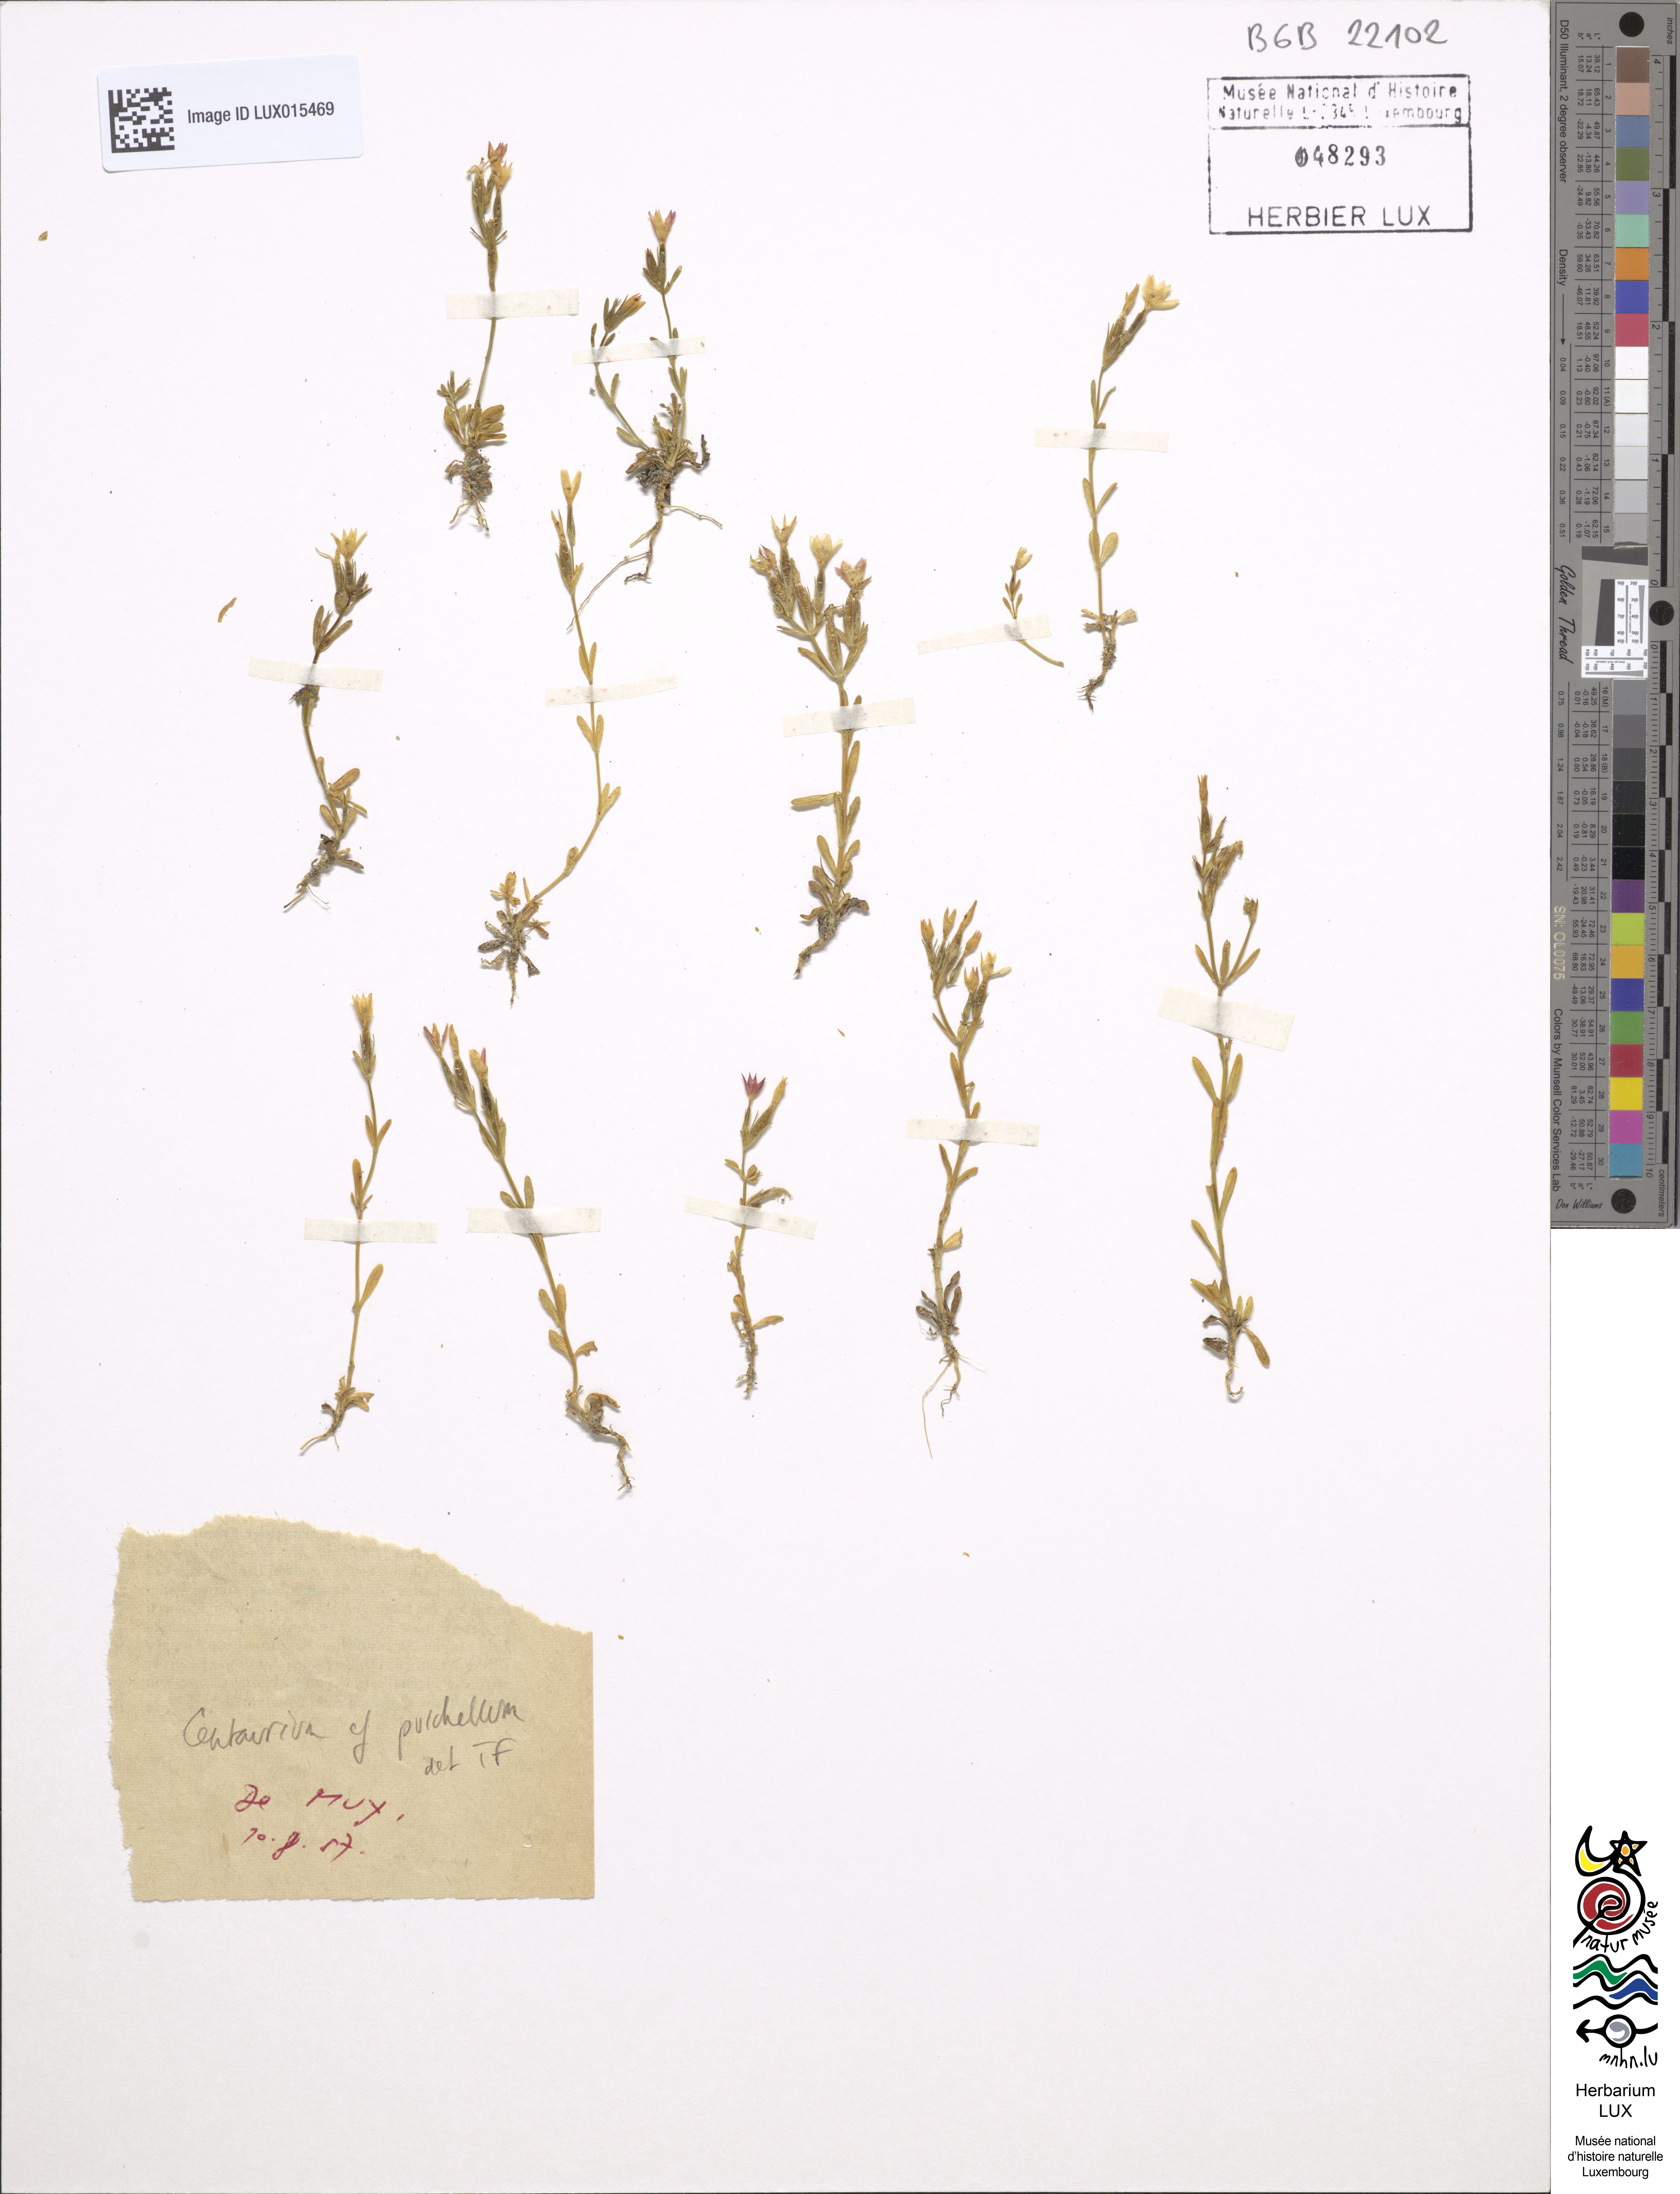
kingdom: Plantae
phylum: Tracheophyta
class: Magnoliopsida
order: Gentianales
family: Gentianaceae
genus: Centaurium
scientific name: Centaurium pulchellum
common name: Lesser centaury
